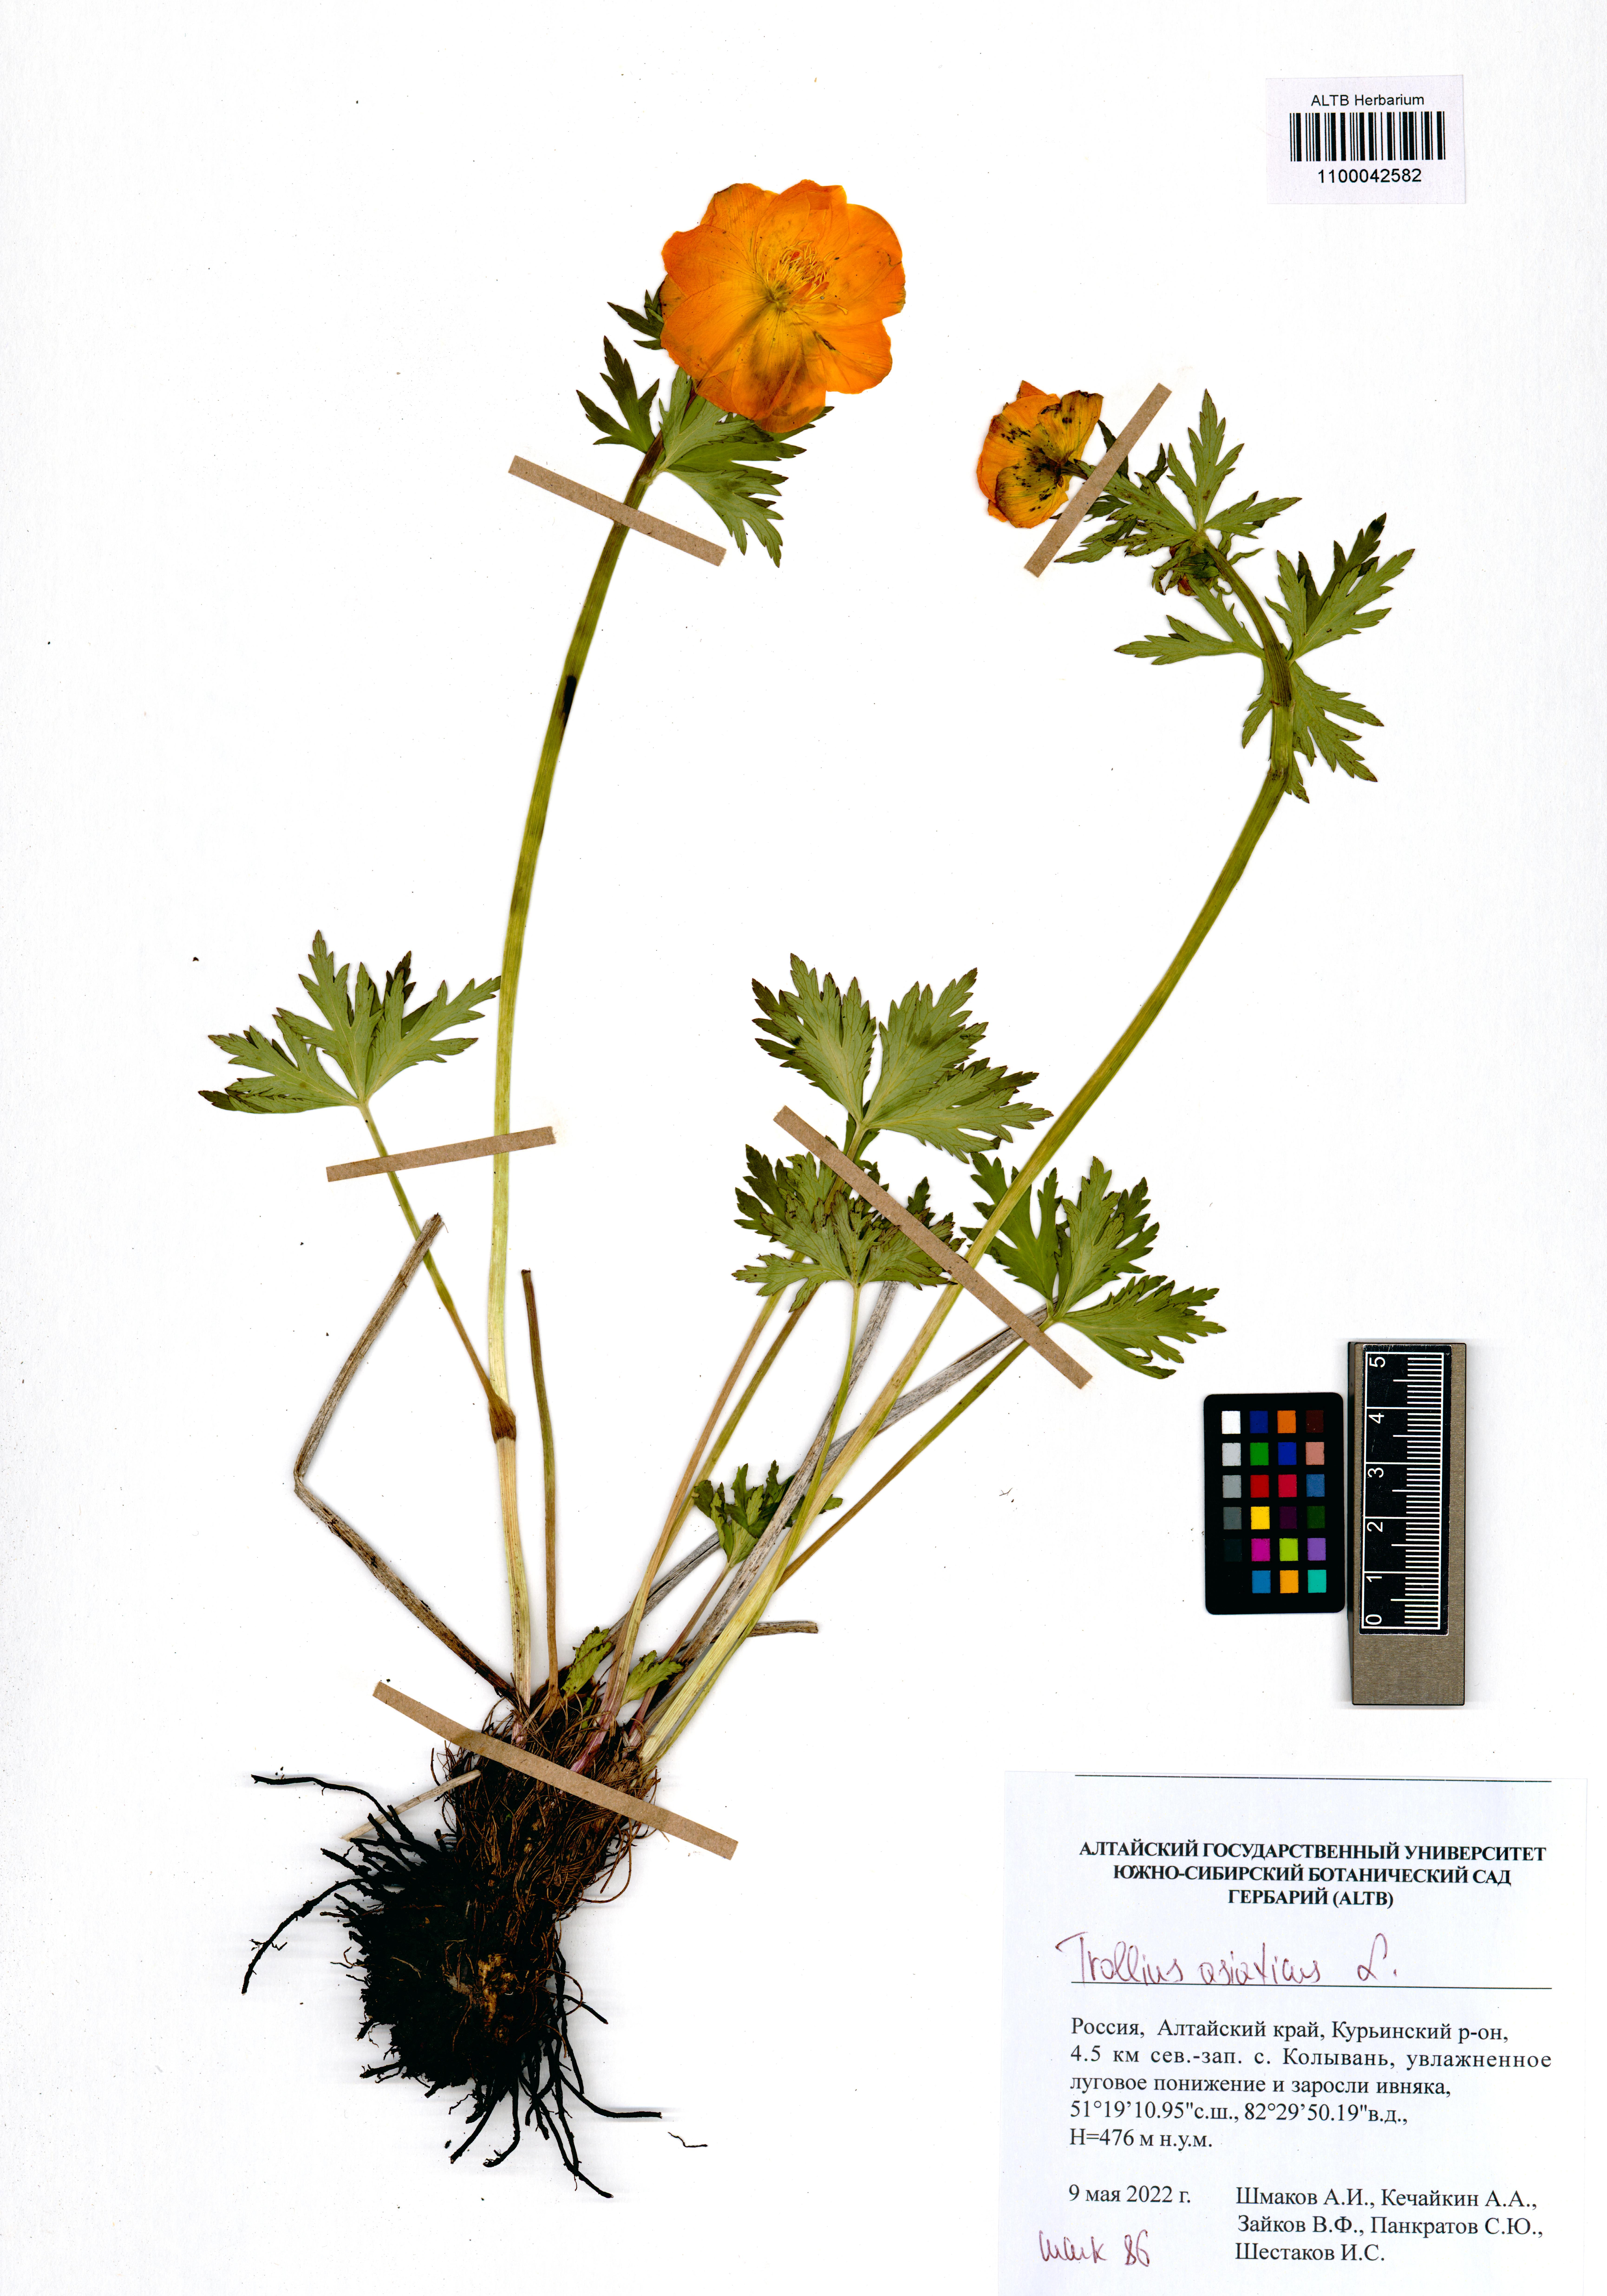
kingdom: Plantae
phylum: Tracheophyta
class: Magnoliopsida
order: Ranunculales
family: Ranunculaceae
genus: Trollius
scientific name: Trollius asiaticus
